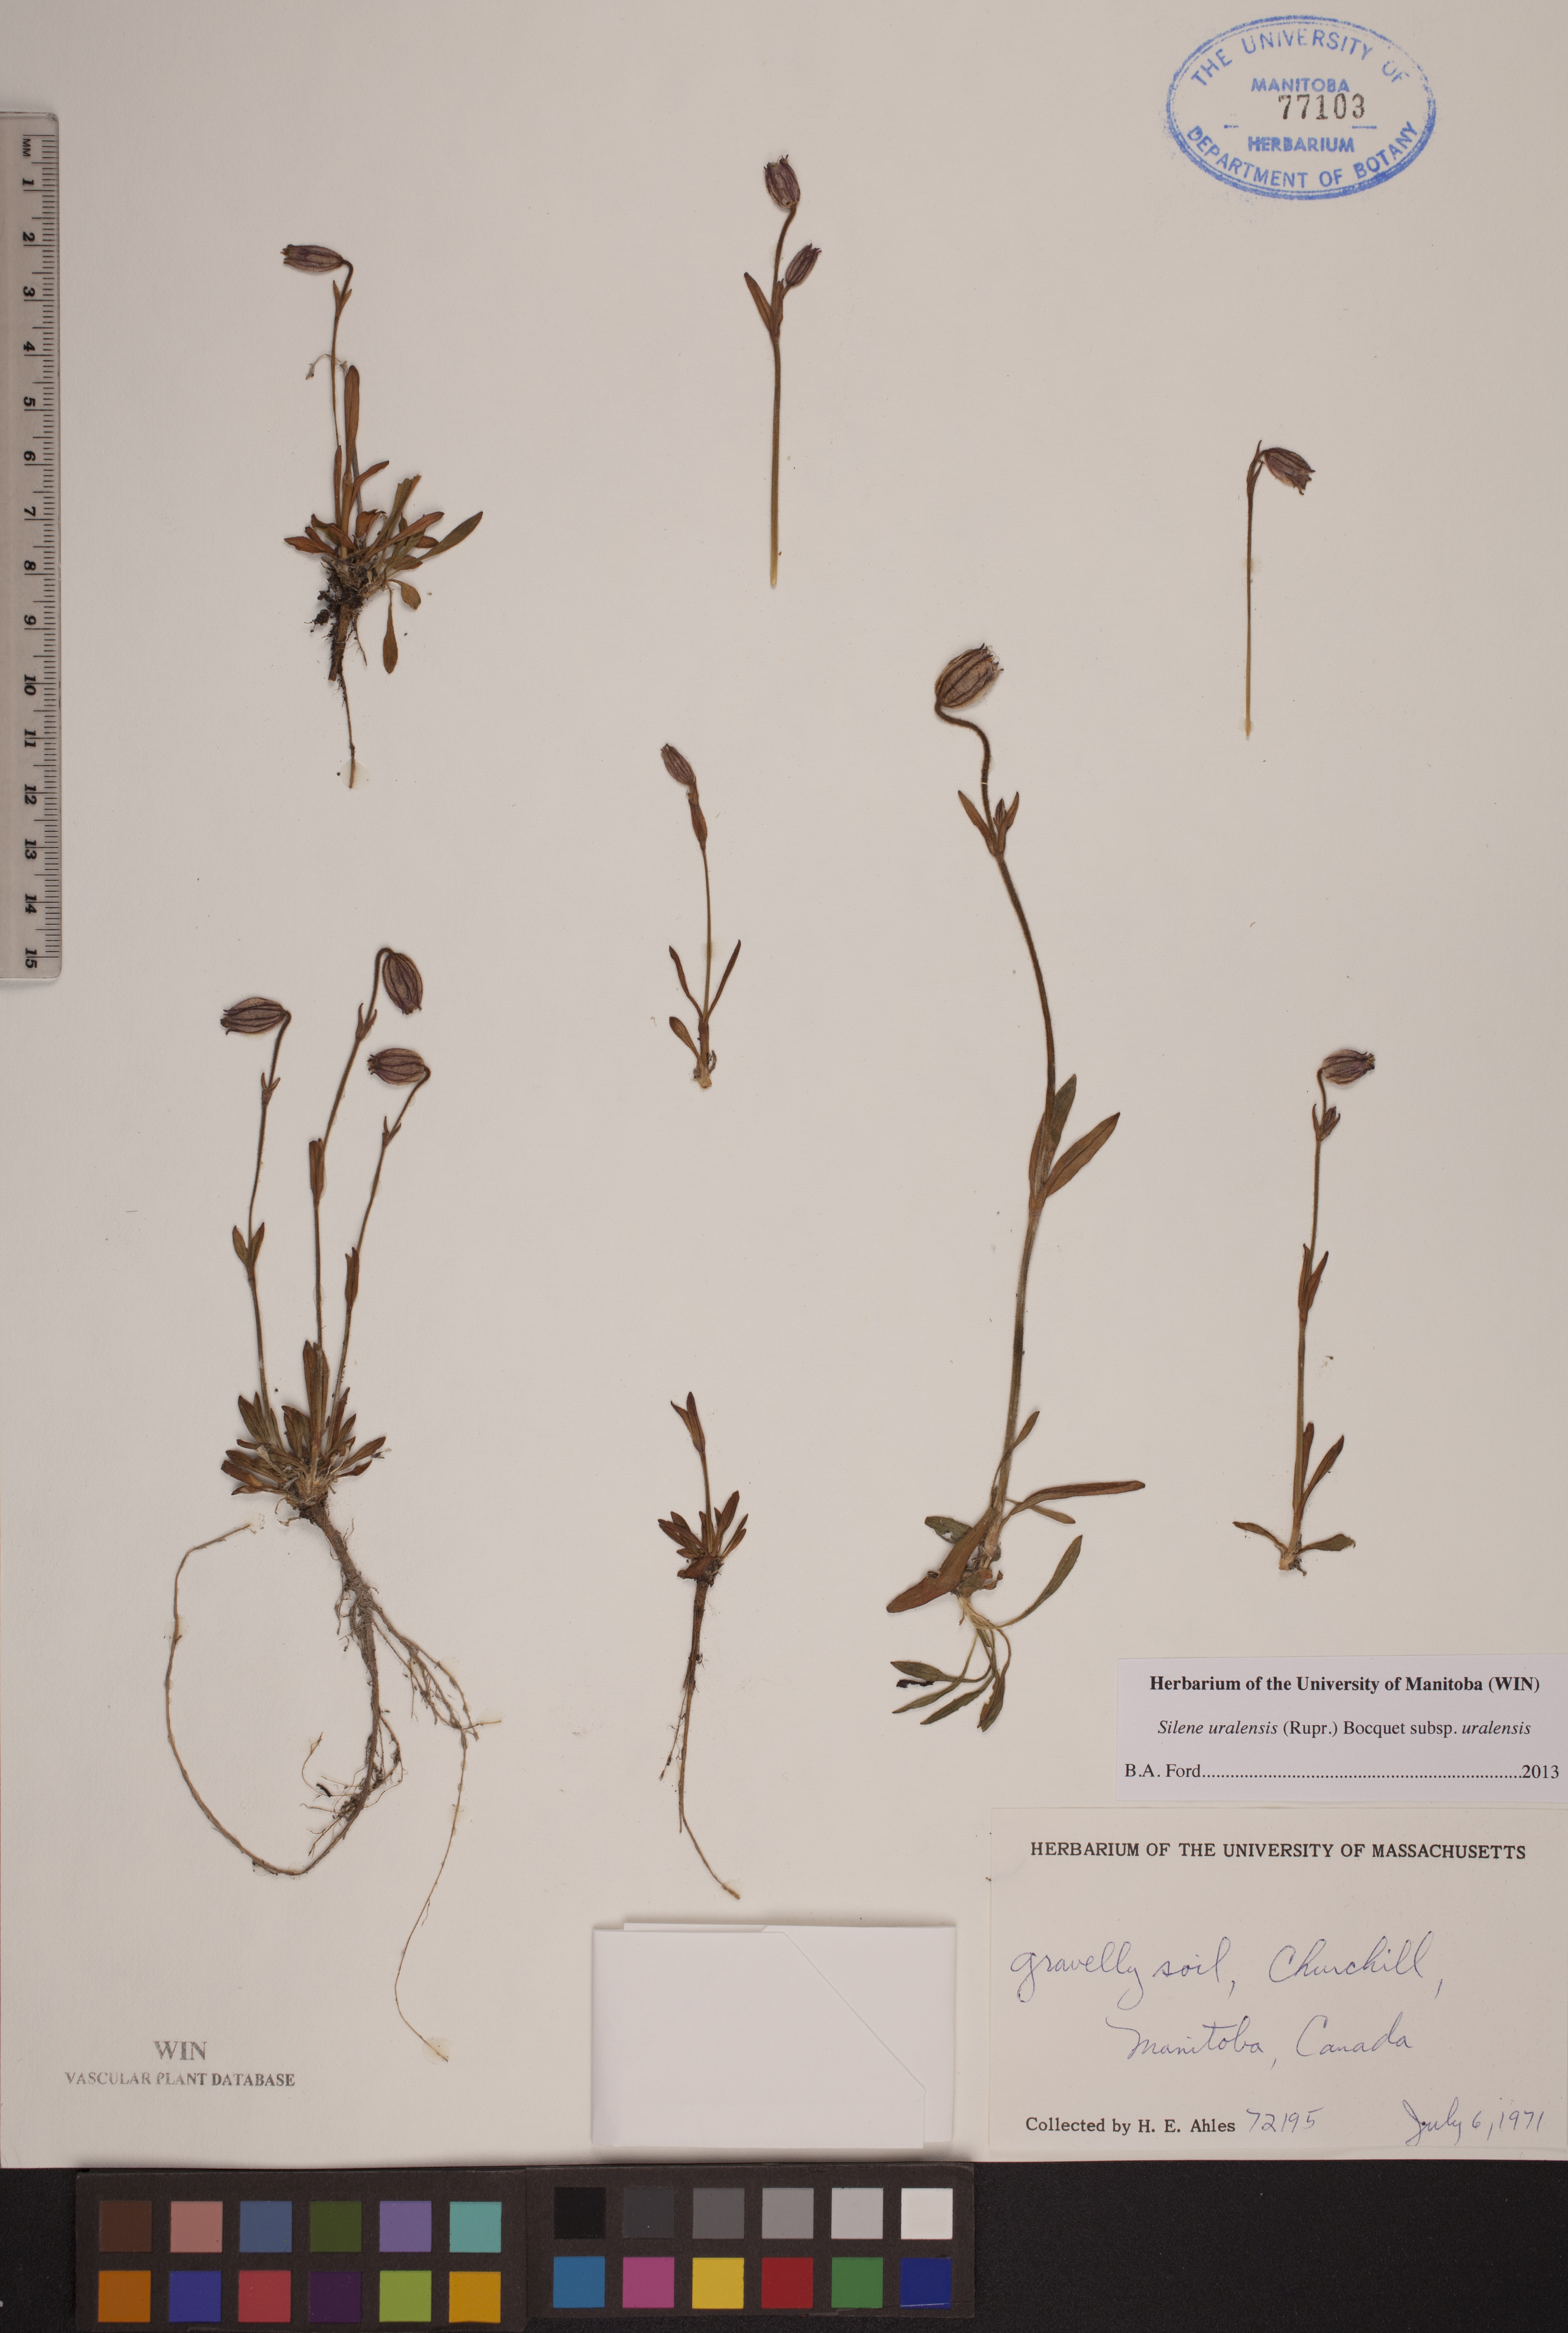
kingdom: Plantae
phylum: Tracheophyta
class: Magnoliopsida
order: Caryophyllales
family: Caryophyllaceae
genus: Silene
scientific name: Silene uralensis
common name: Nodding campion
